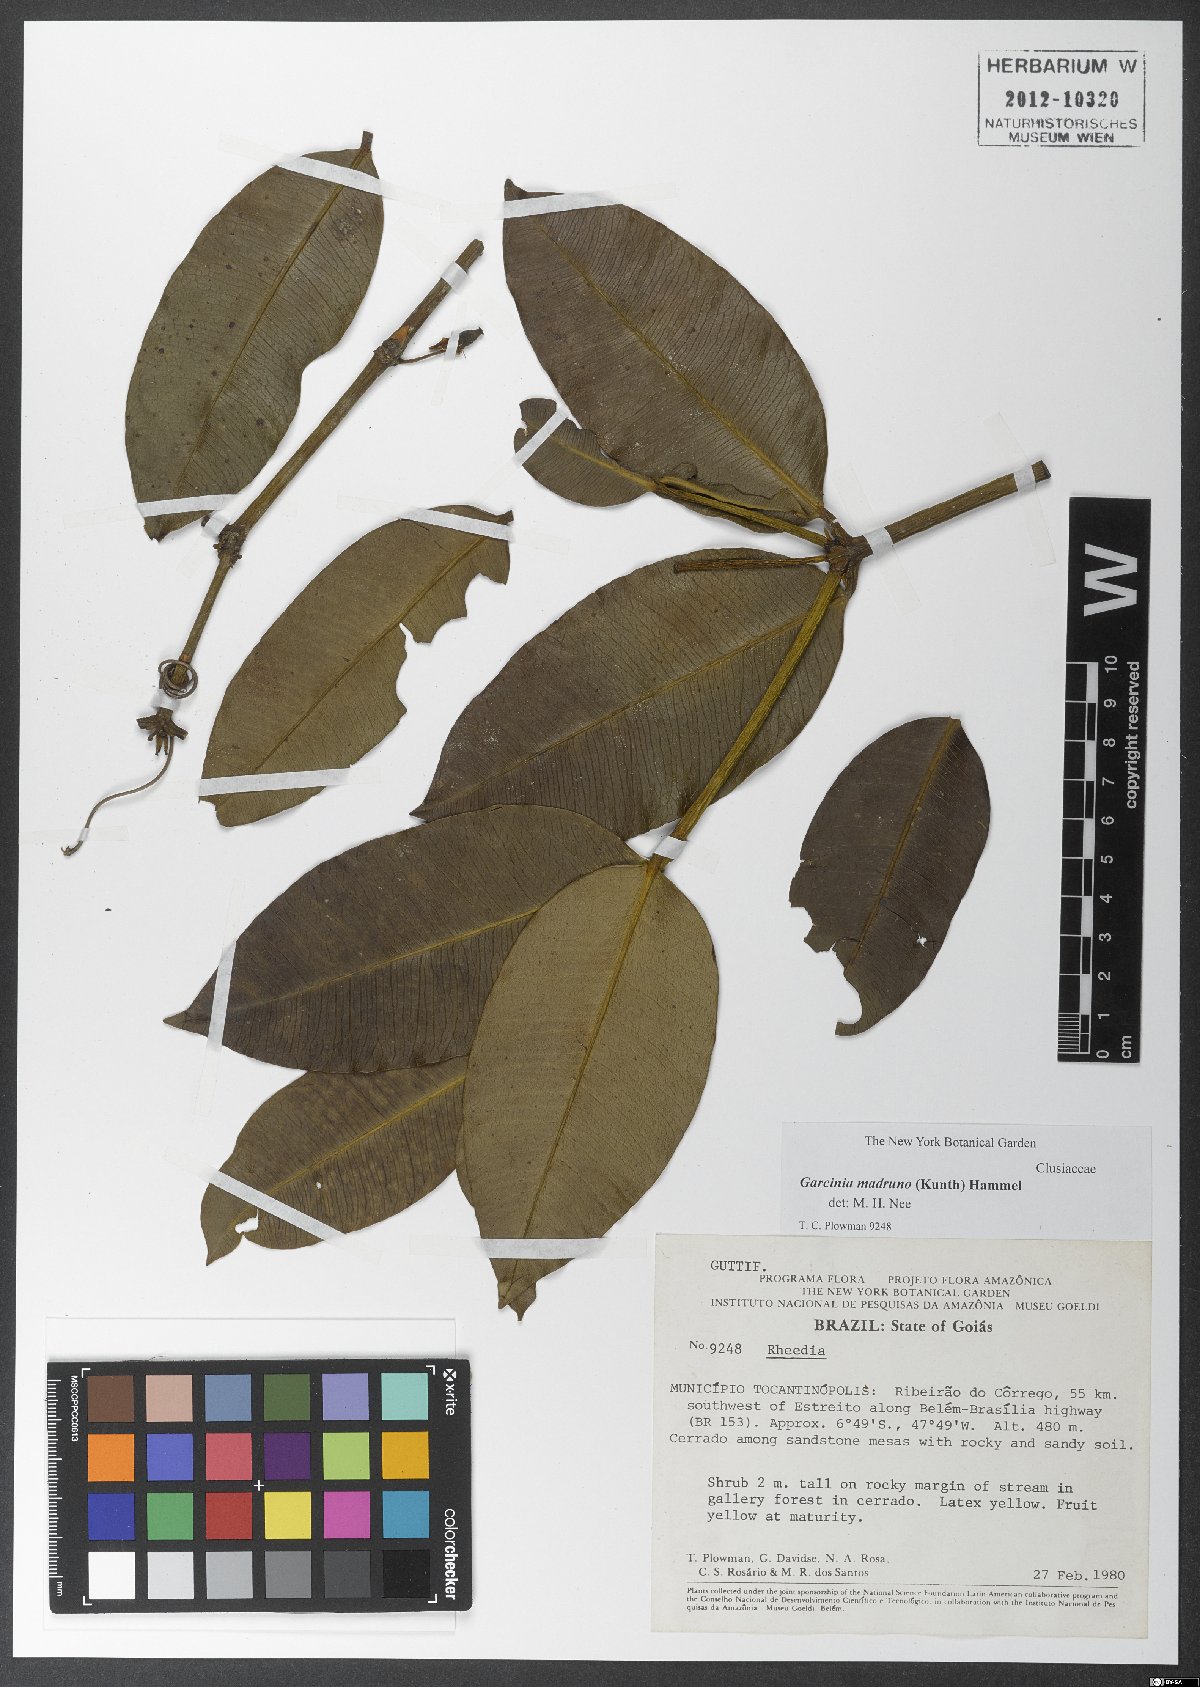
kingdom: Plantae
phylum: Tracheophyta
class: Magnoliopsida
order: Malpighiales
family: Clusiaceae
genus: Garcinia
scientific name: Garcinia madruno
